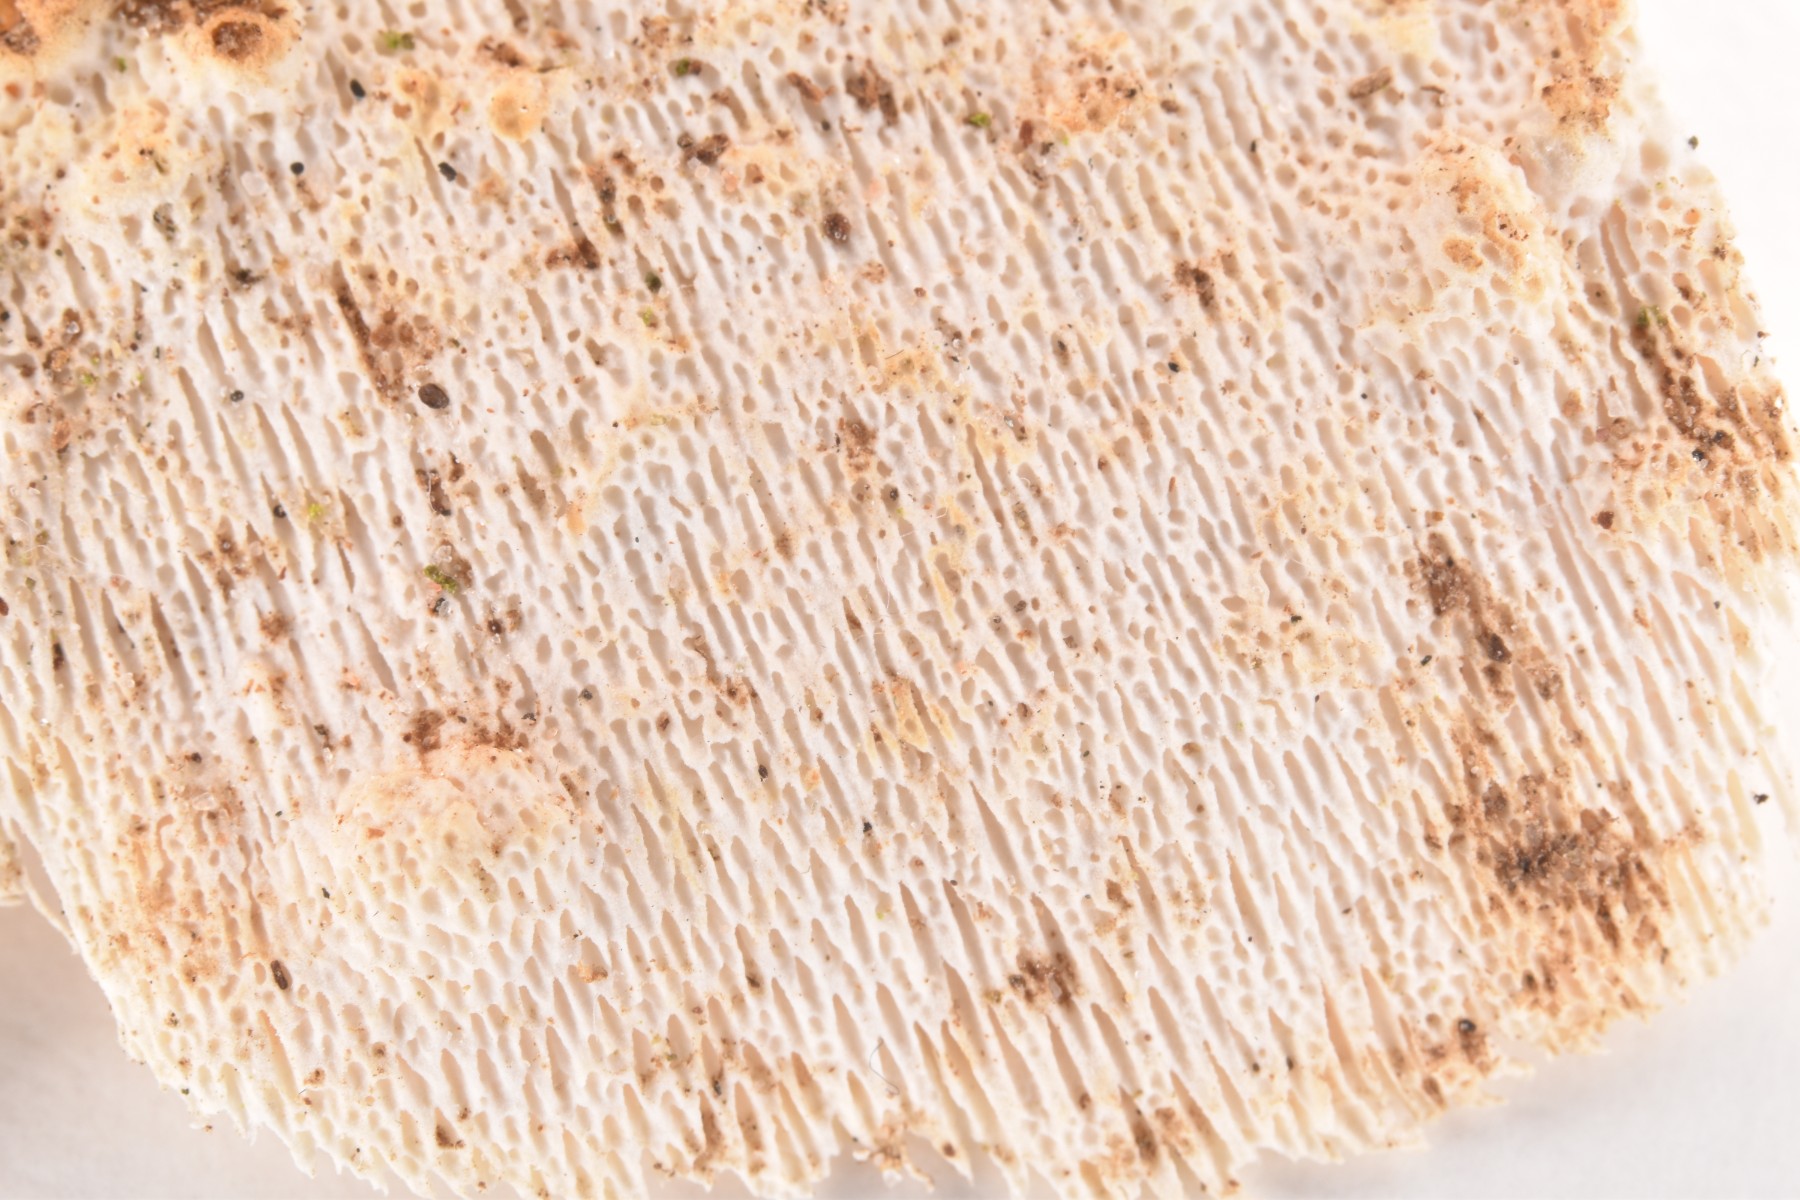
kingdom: Fungi
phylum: Basidiomycota
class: Agaricomycetes
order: Polyporales
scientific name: Polyporales
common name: poresvampordenen
